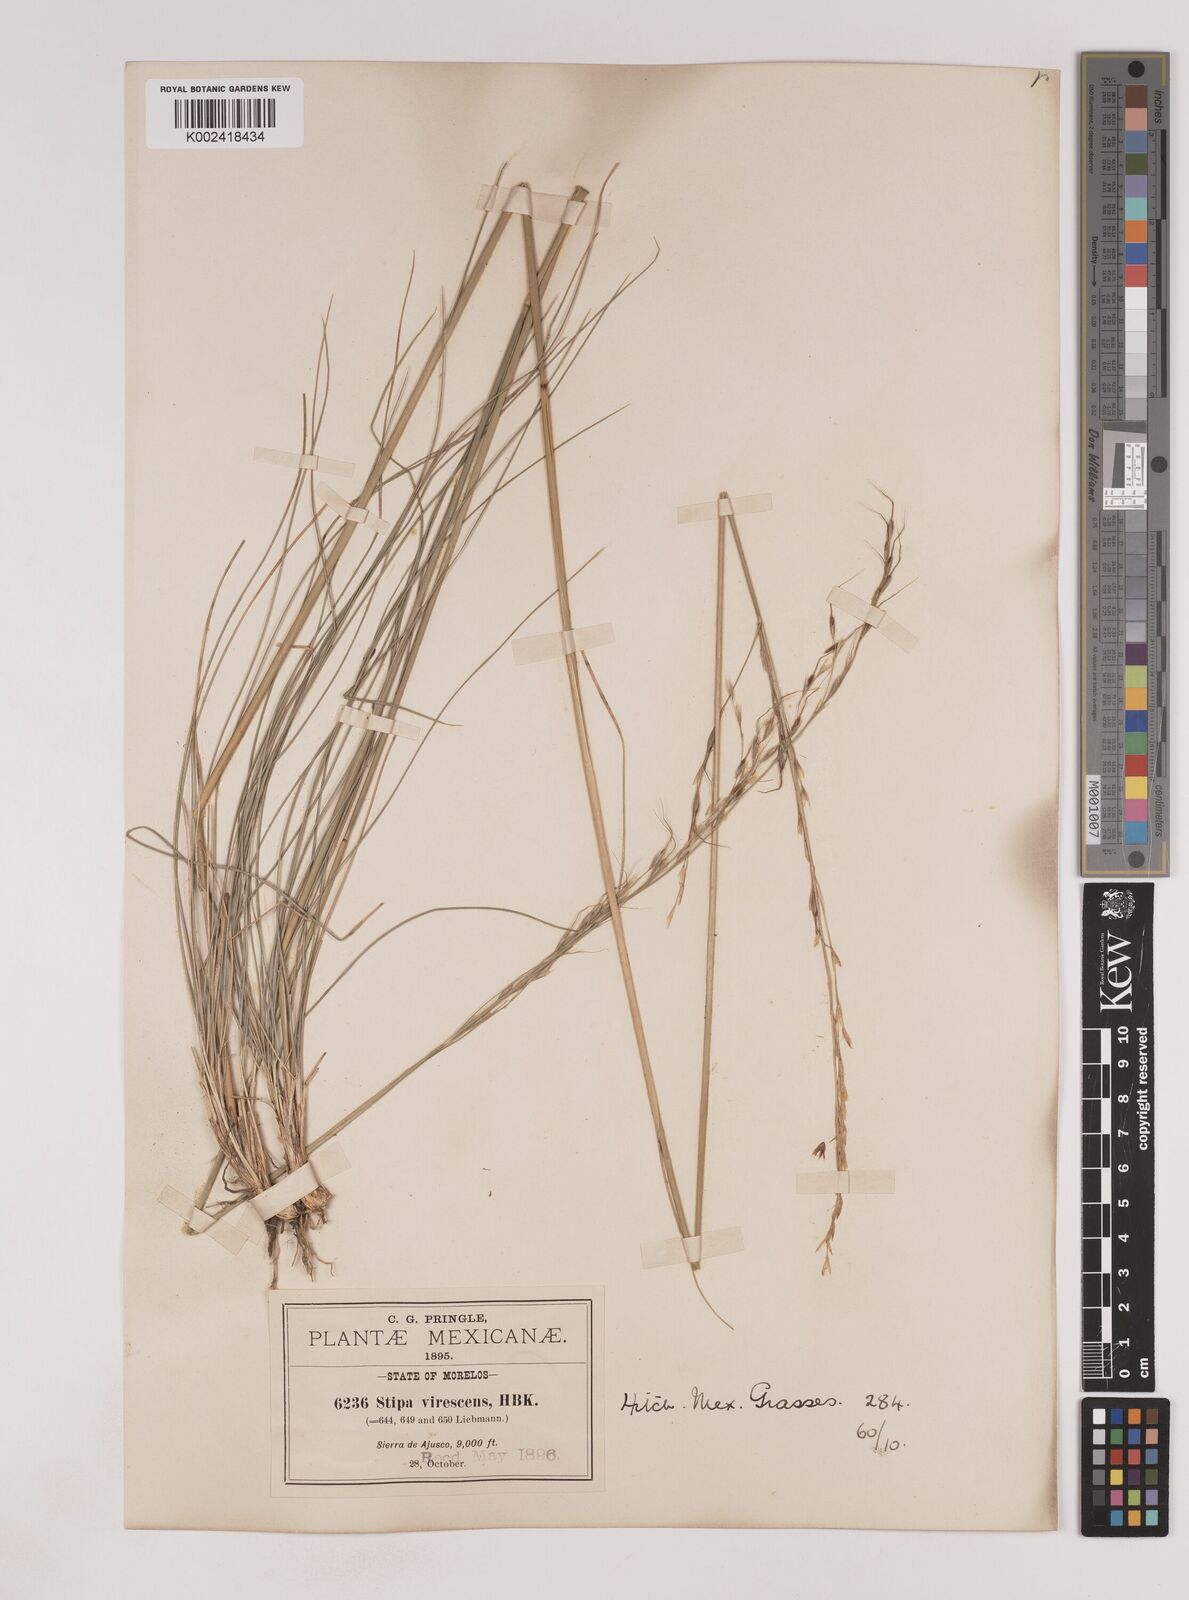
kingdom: Plantae
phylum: Tracheophyta
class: Liliopsida
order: Poales
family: Poaceae
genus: Piptochaetium
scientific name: Piptochaetium virescens
